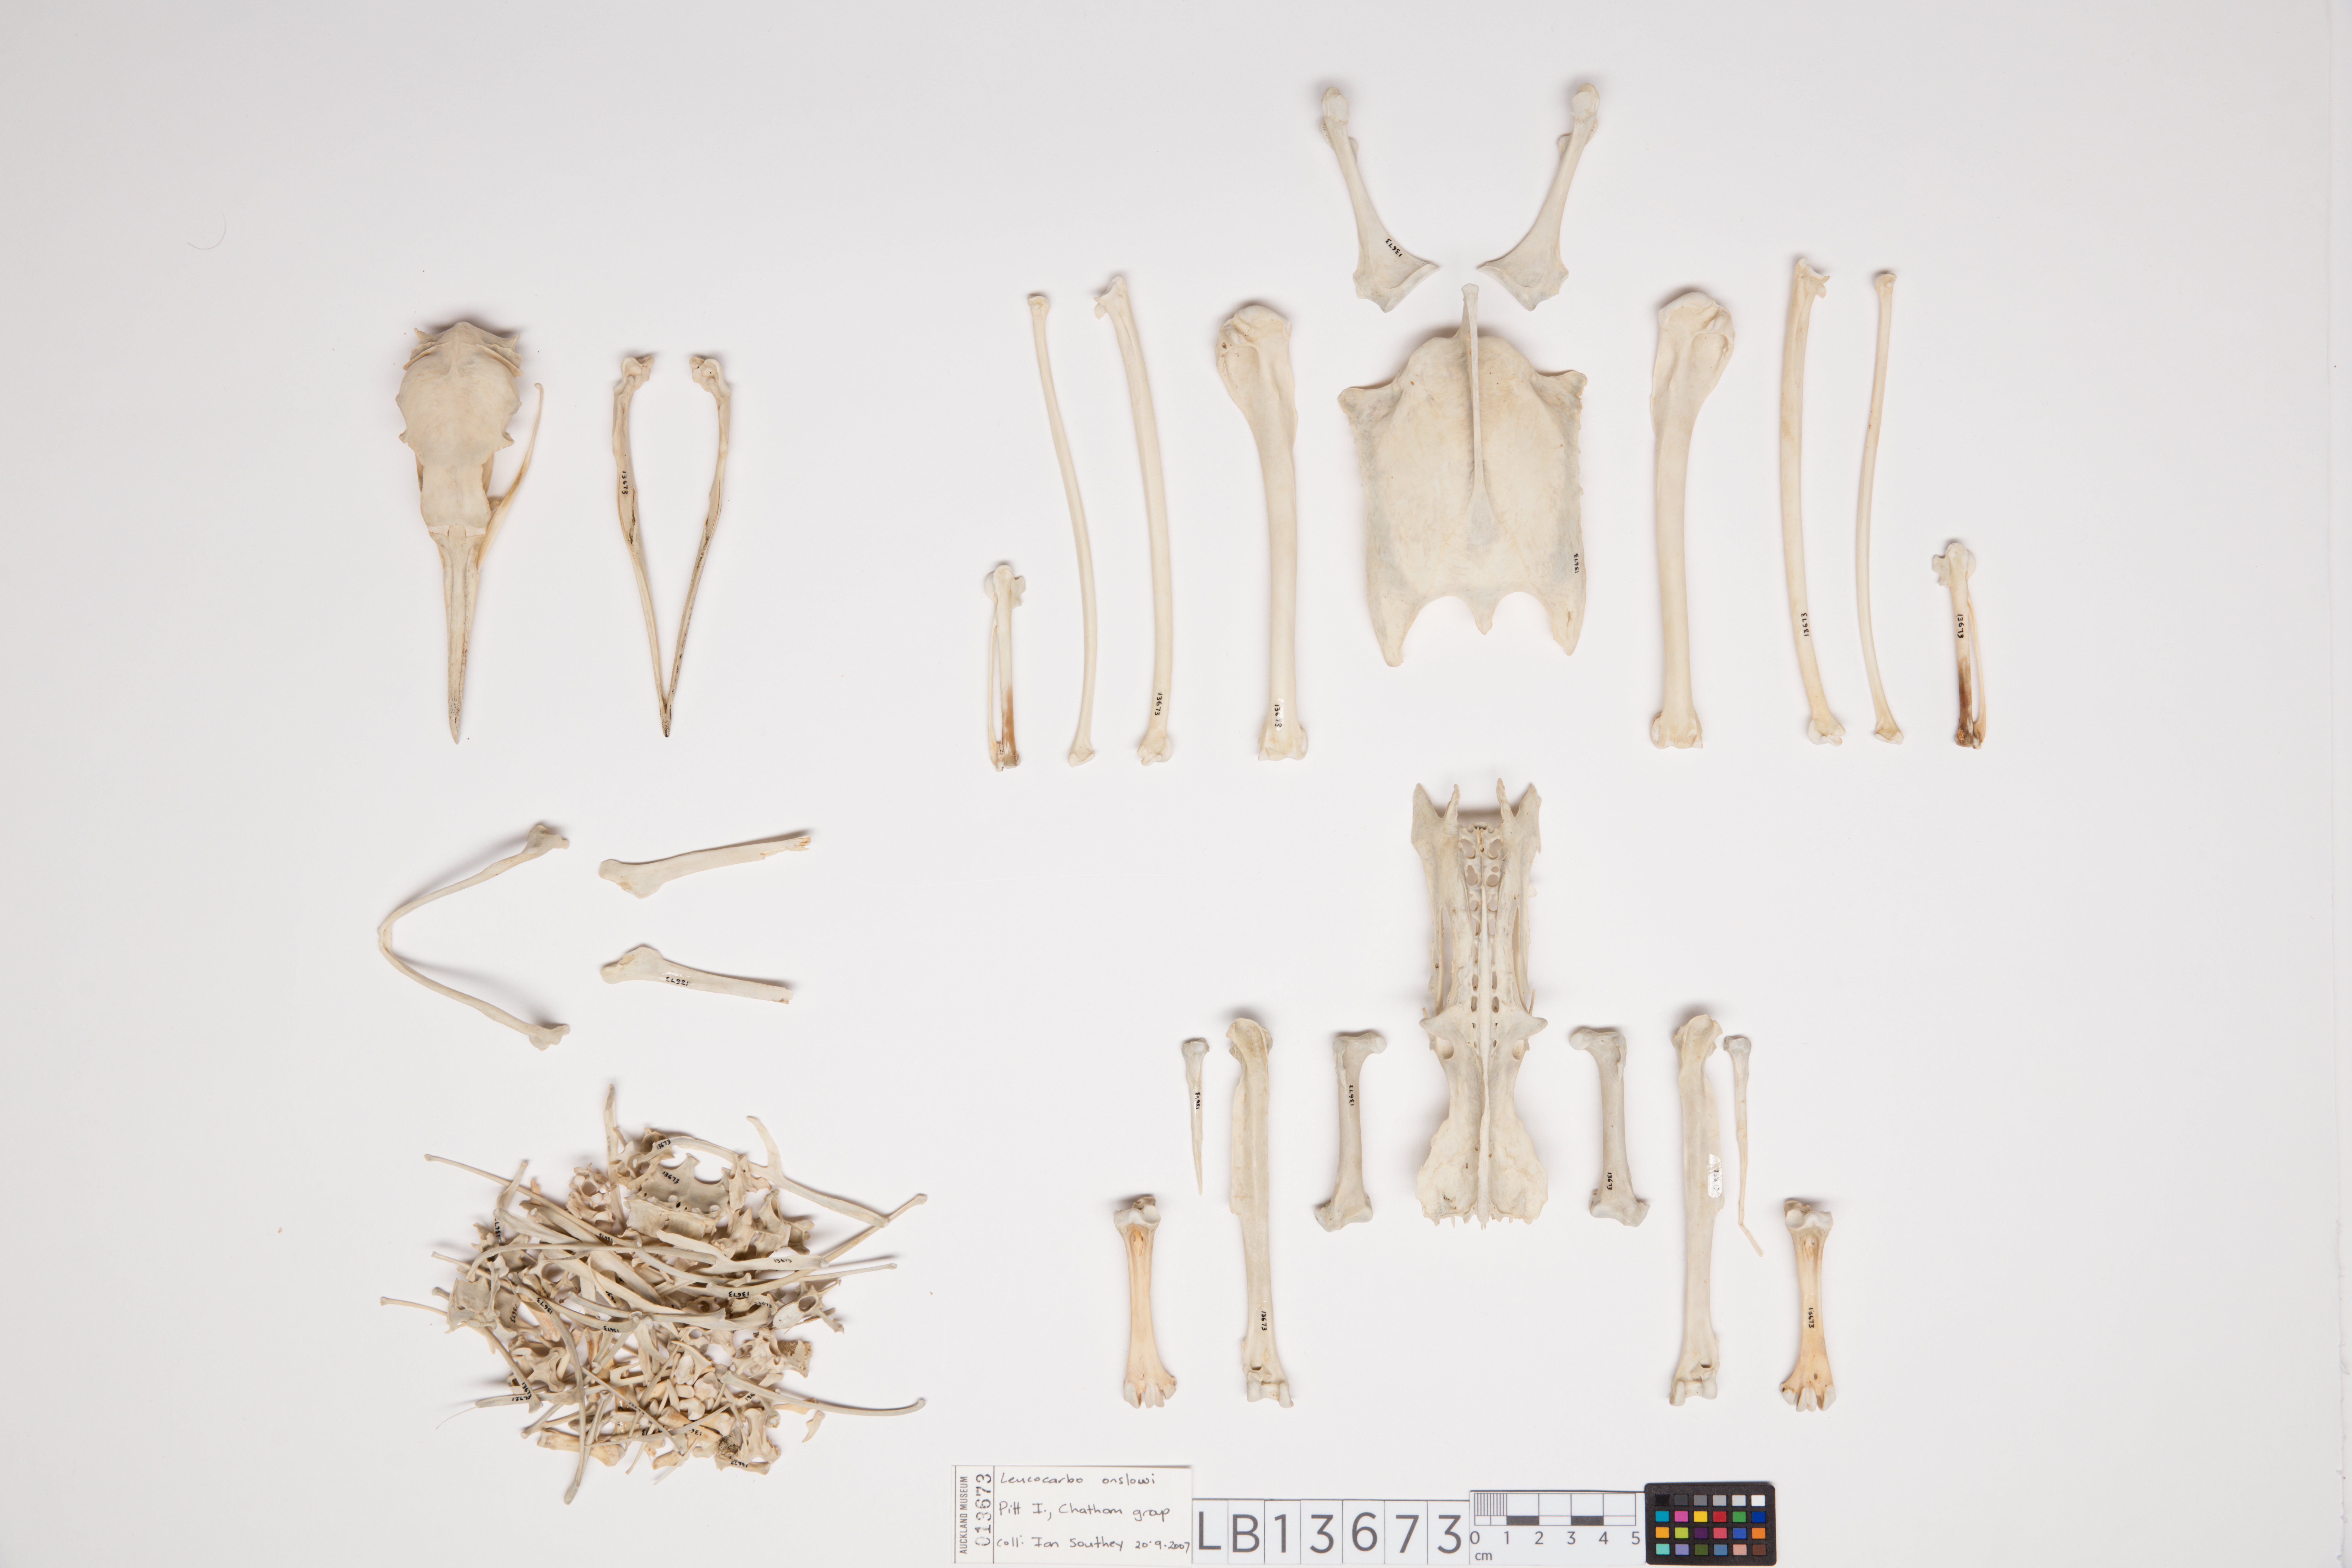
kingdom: Animalia
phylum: Chordata
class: Aves
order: Suliformes
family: Phalacrocoracidae
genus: Leucocarbo
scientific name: Leucocarbo onslowi
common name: Chatham shag
